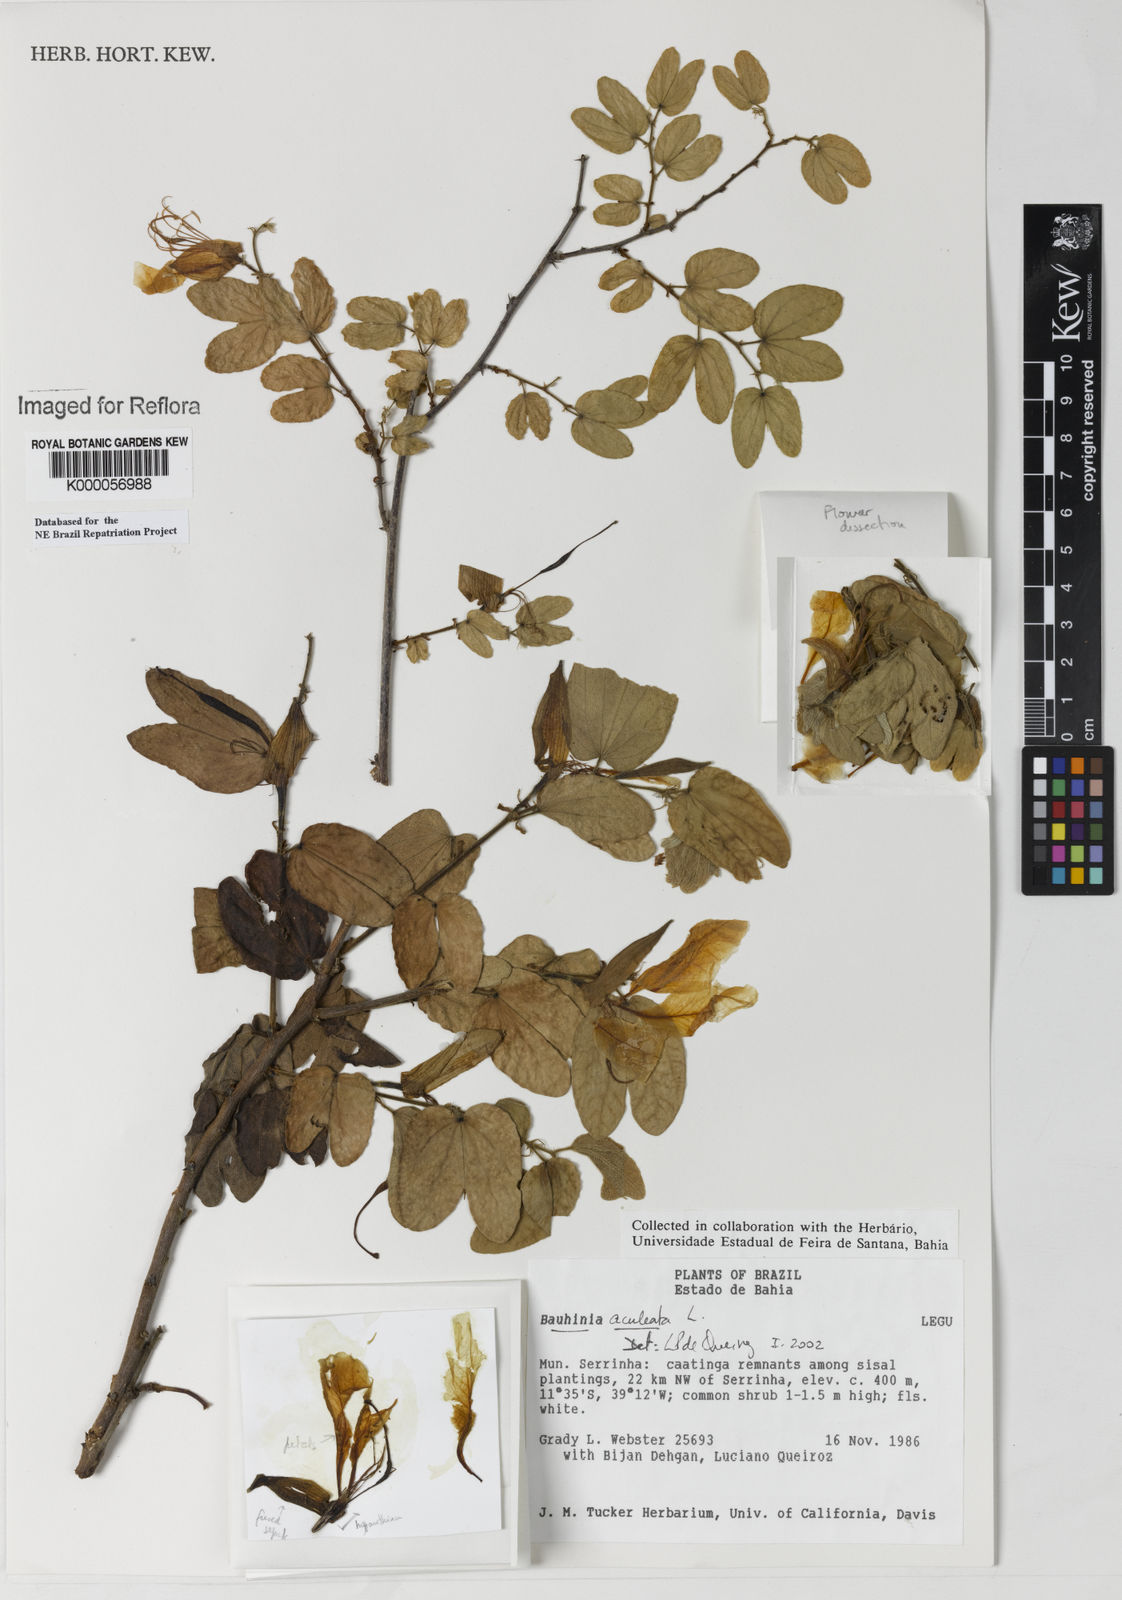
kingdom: Plantae
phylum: Tracheophyta
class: Magnoliopsida
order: Fabales
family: Fabaceae
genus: Bauhinia
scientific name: Bauhinia aculeata
